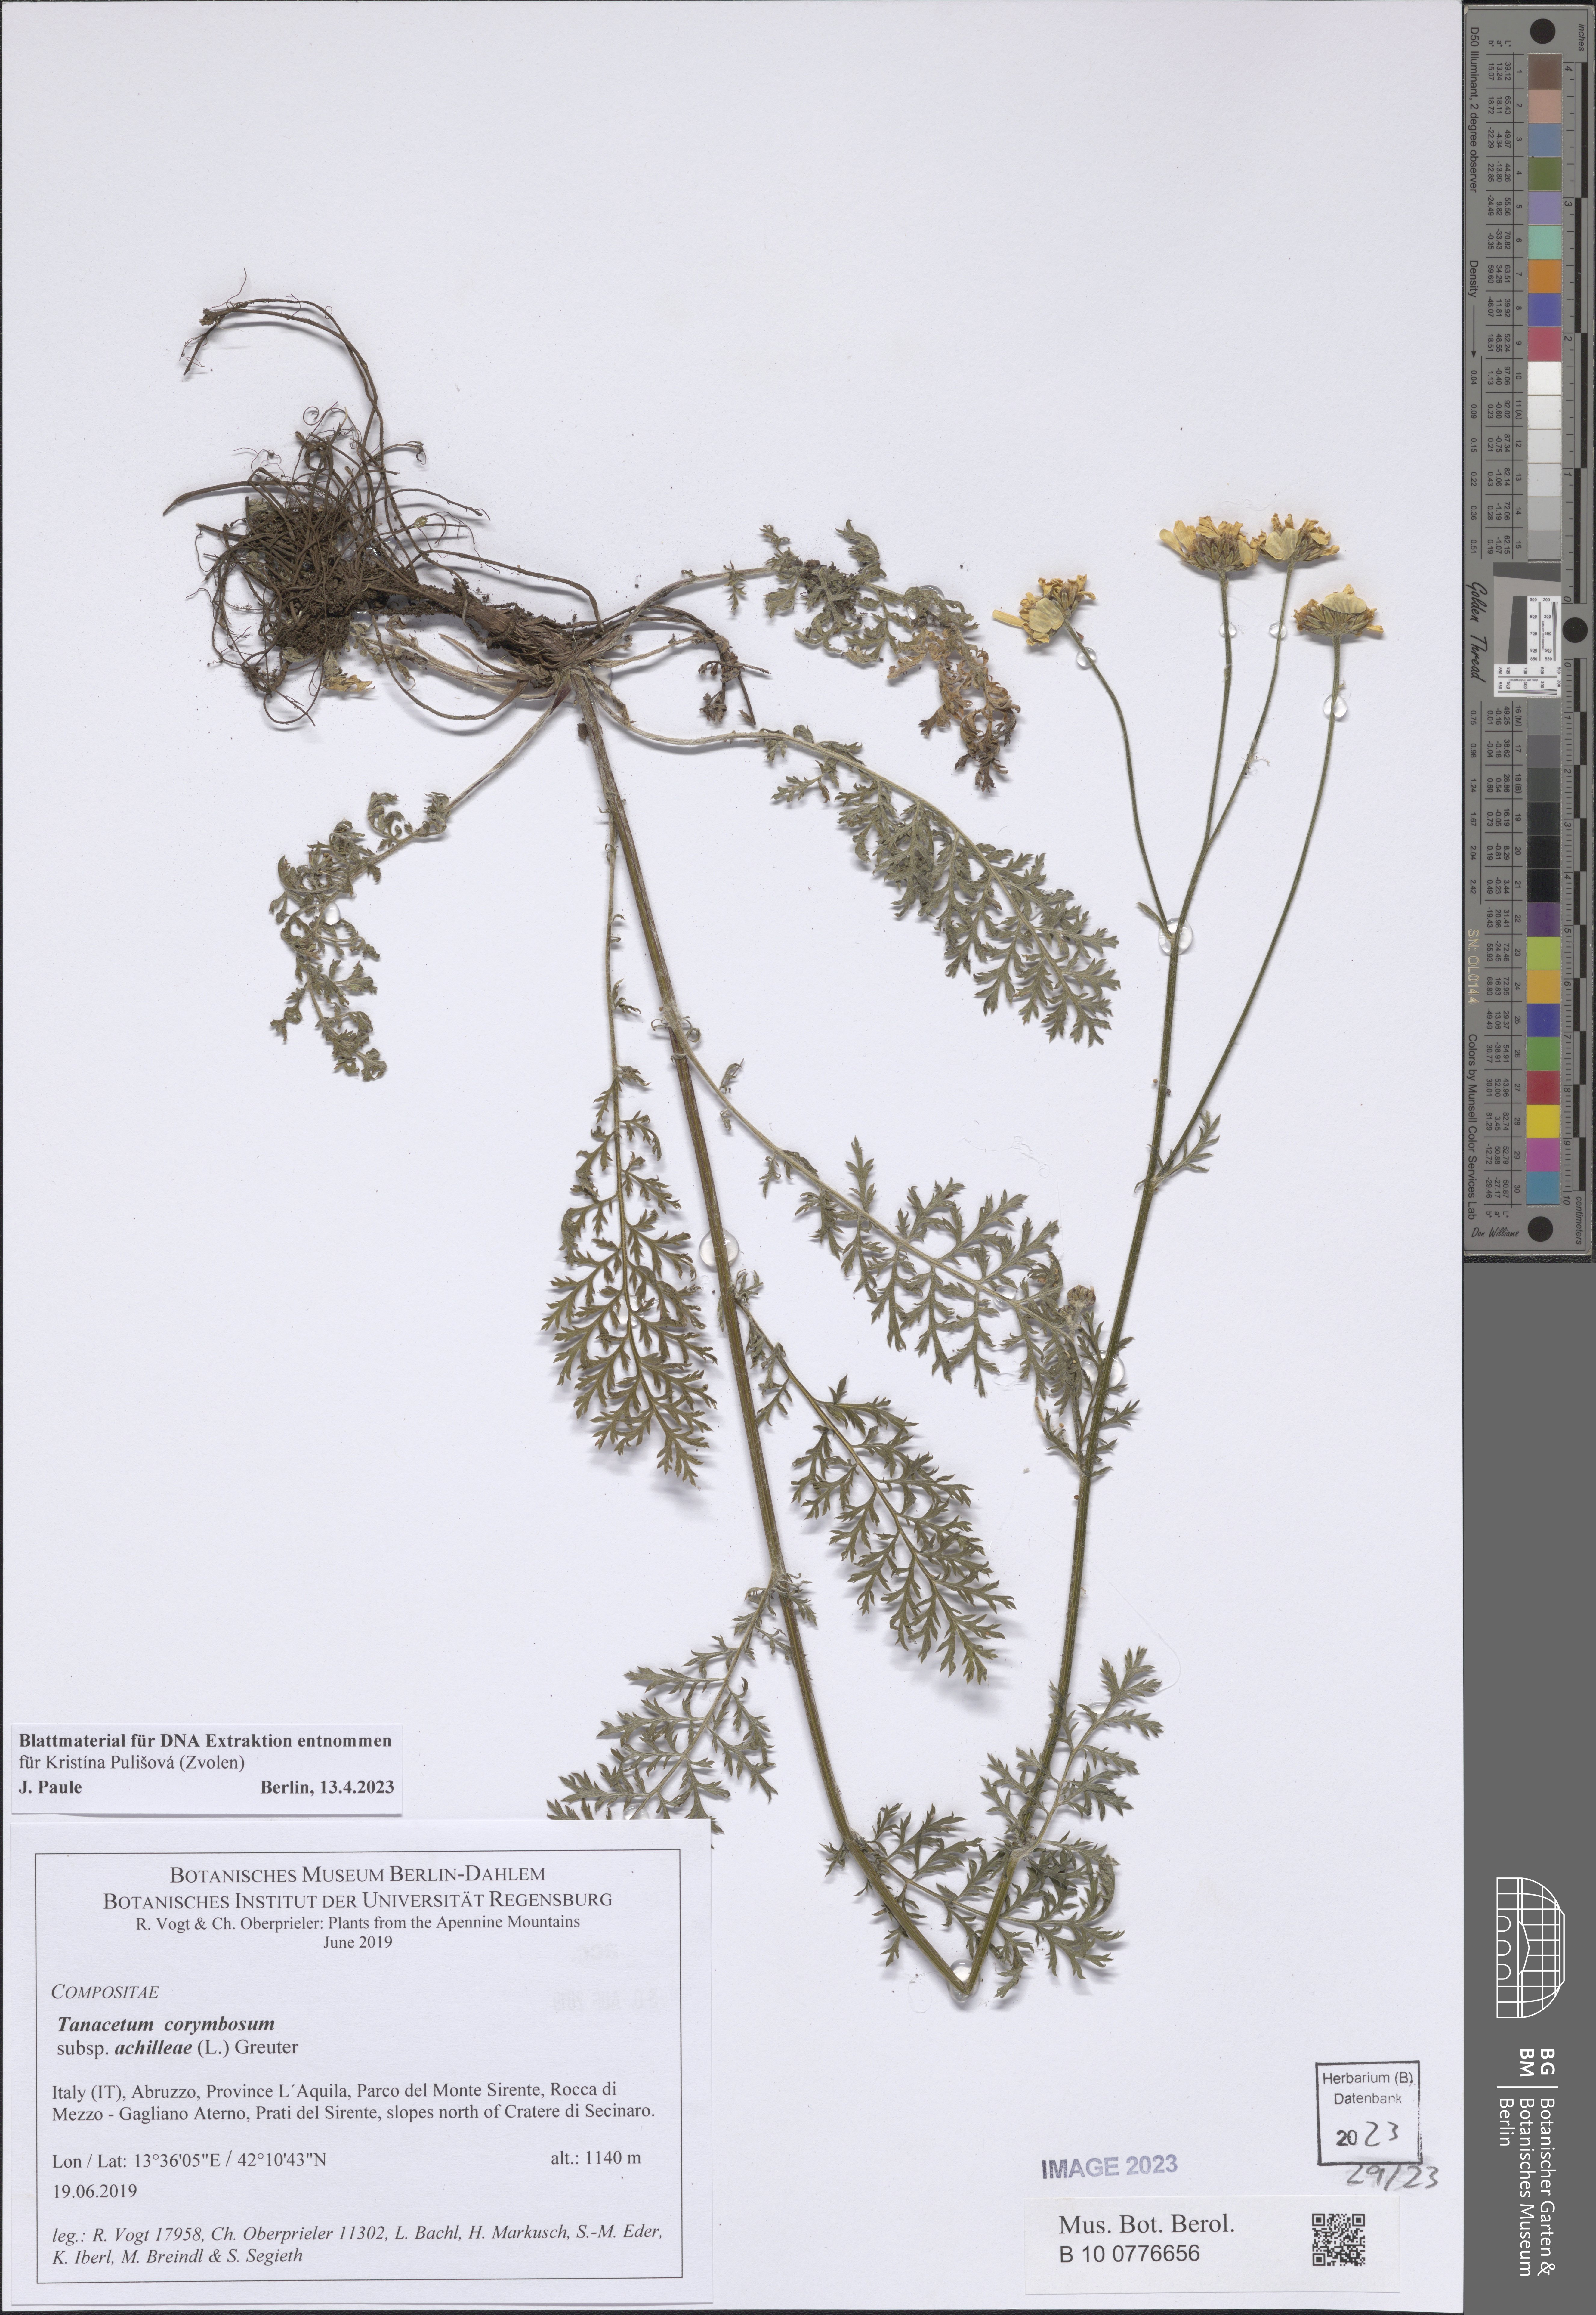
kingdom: Plantae
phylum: Tracheophyta
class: Magnoliopsida
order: Asterales
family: Asteraceae
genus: Tanacetum
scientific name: Tanacetum corymbosum
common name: Scentless feverfew
